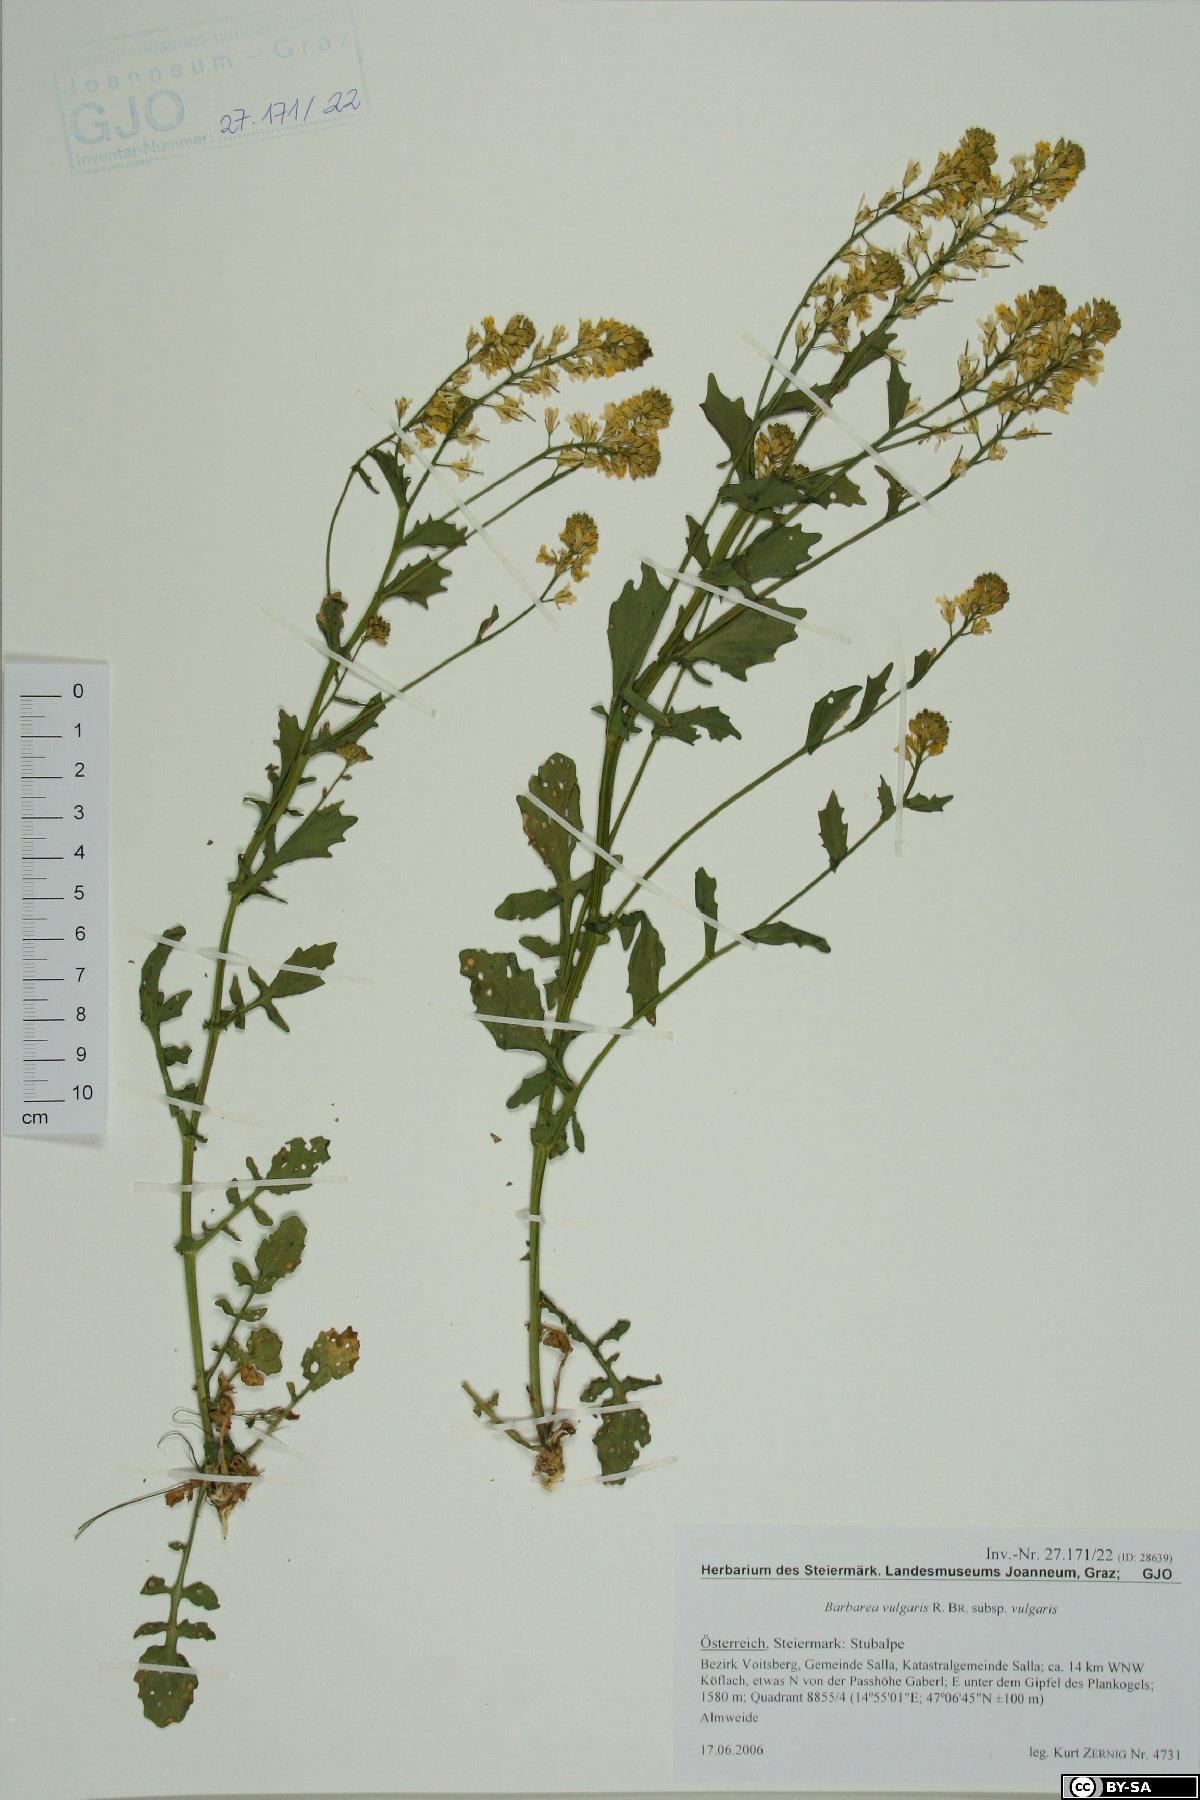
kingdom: Plantae
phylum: Tracheophyta
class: Magnoliopsida
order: Brassicales
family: Brassicaceae
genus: Barbarea
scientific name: Barbarea vulgaris
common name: Cressy-greens
